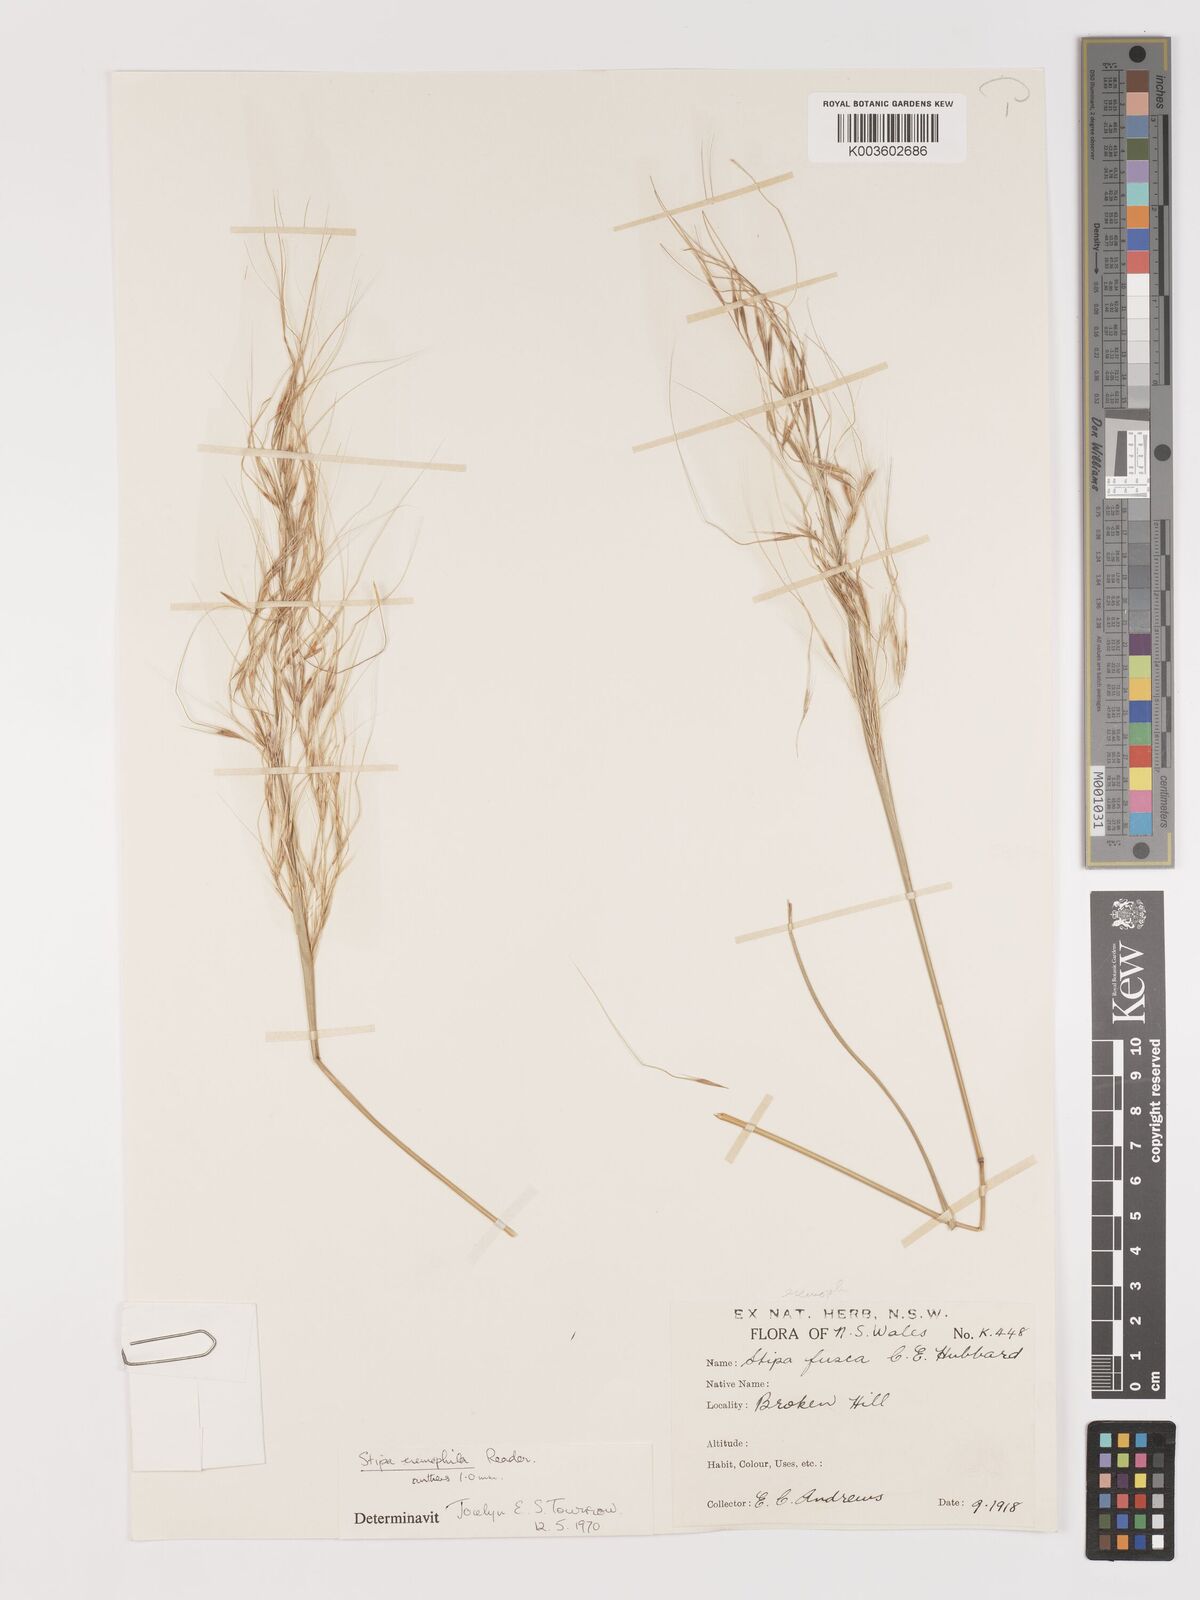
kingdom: Plantae
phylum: Tracheophyta
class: Liliopsida
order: Poales
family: Poaceae
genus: Austrostipa
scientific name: Austrostipa eremophila
